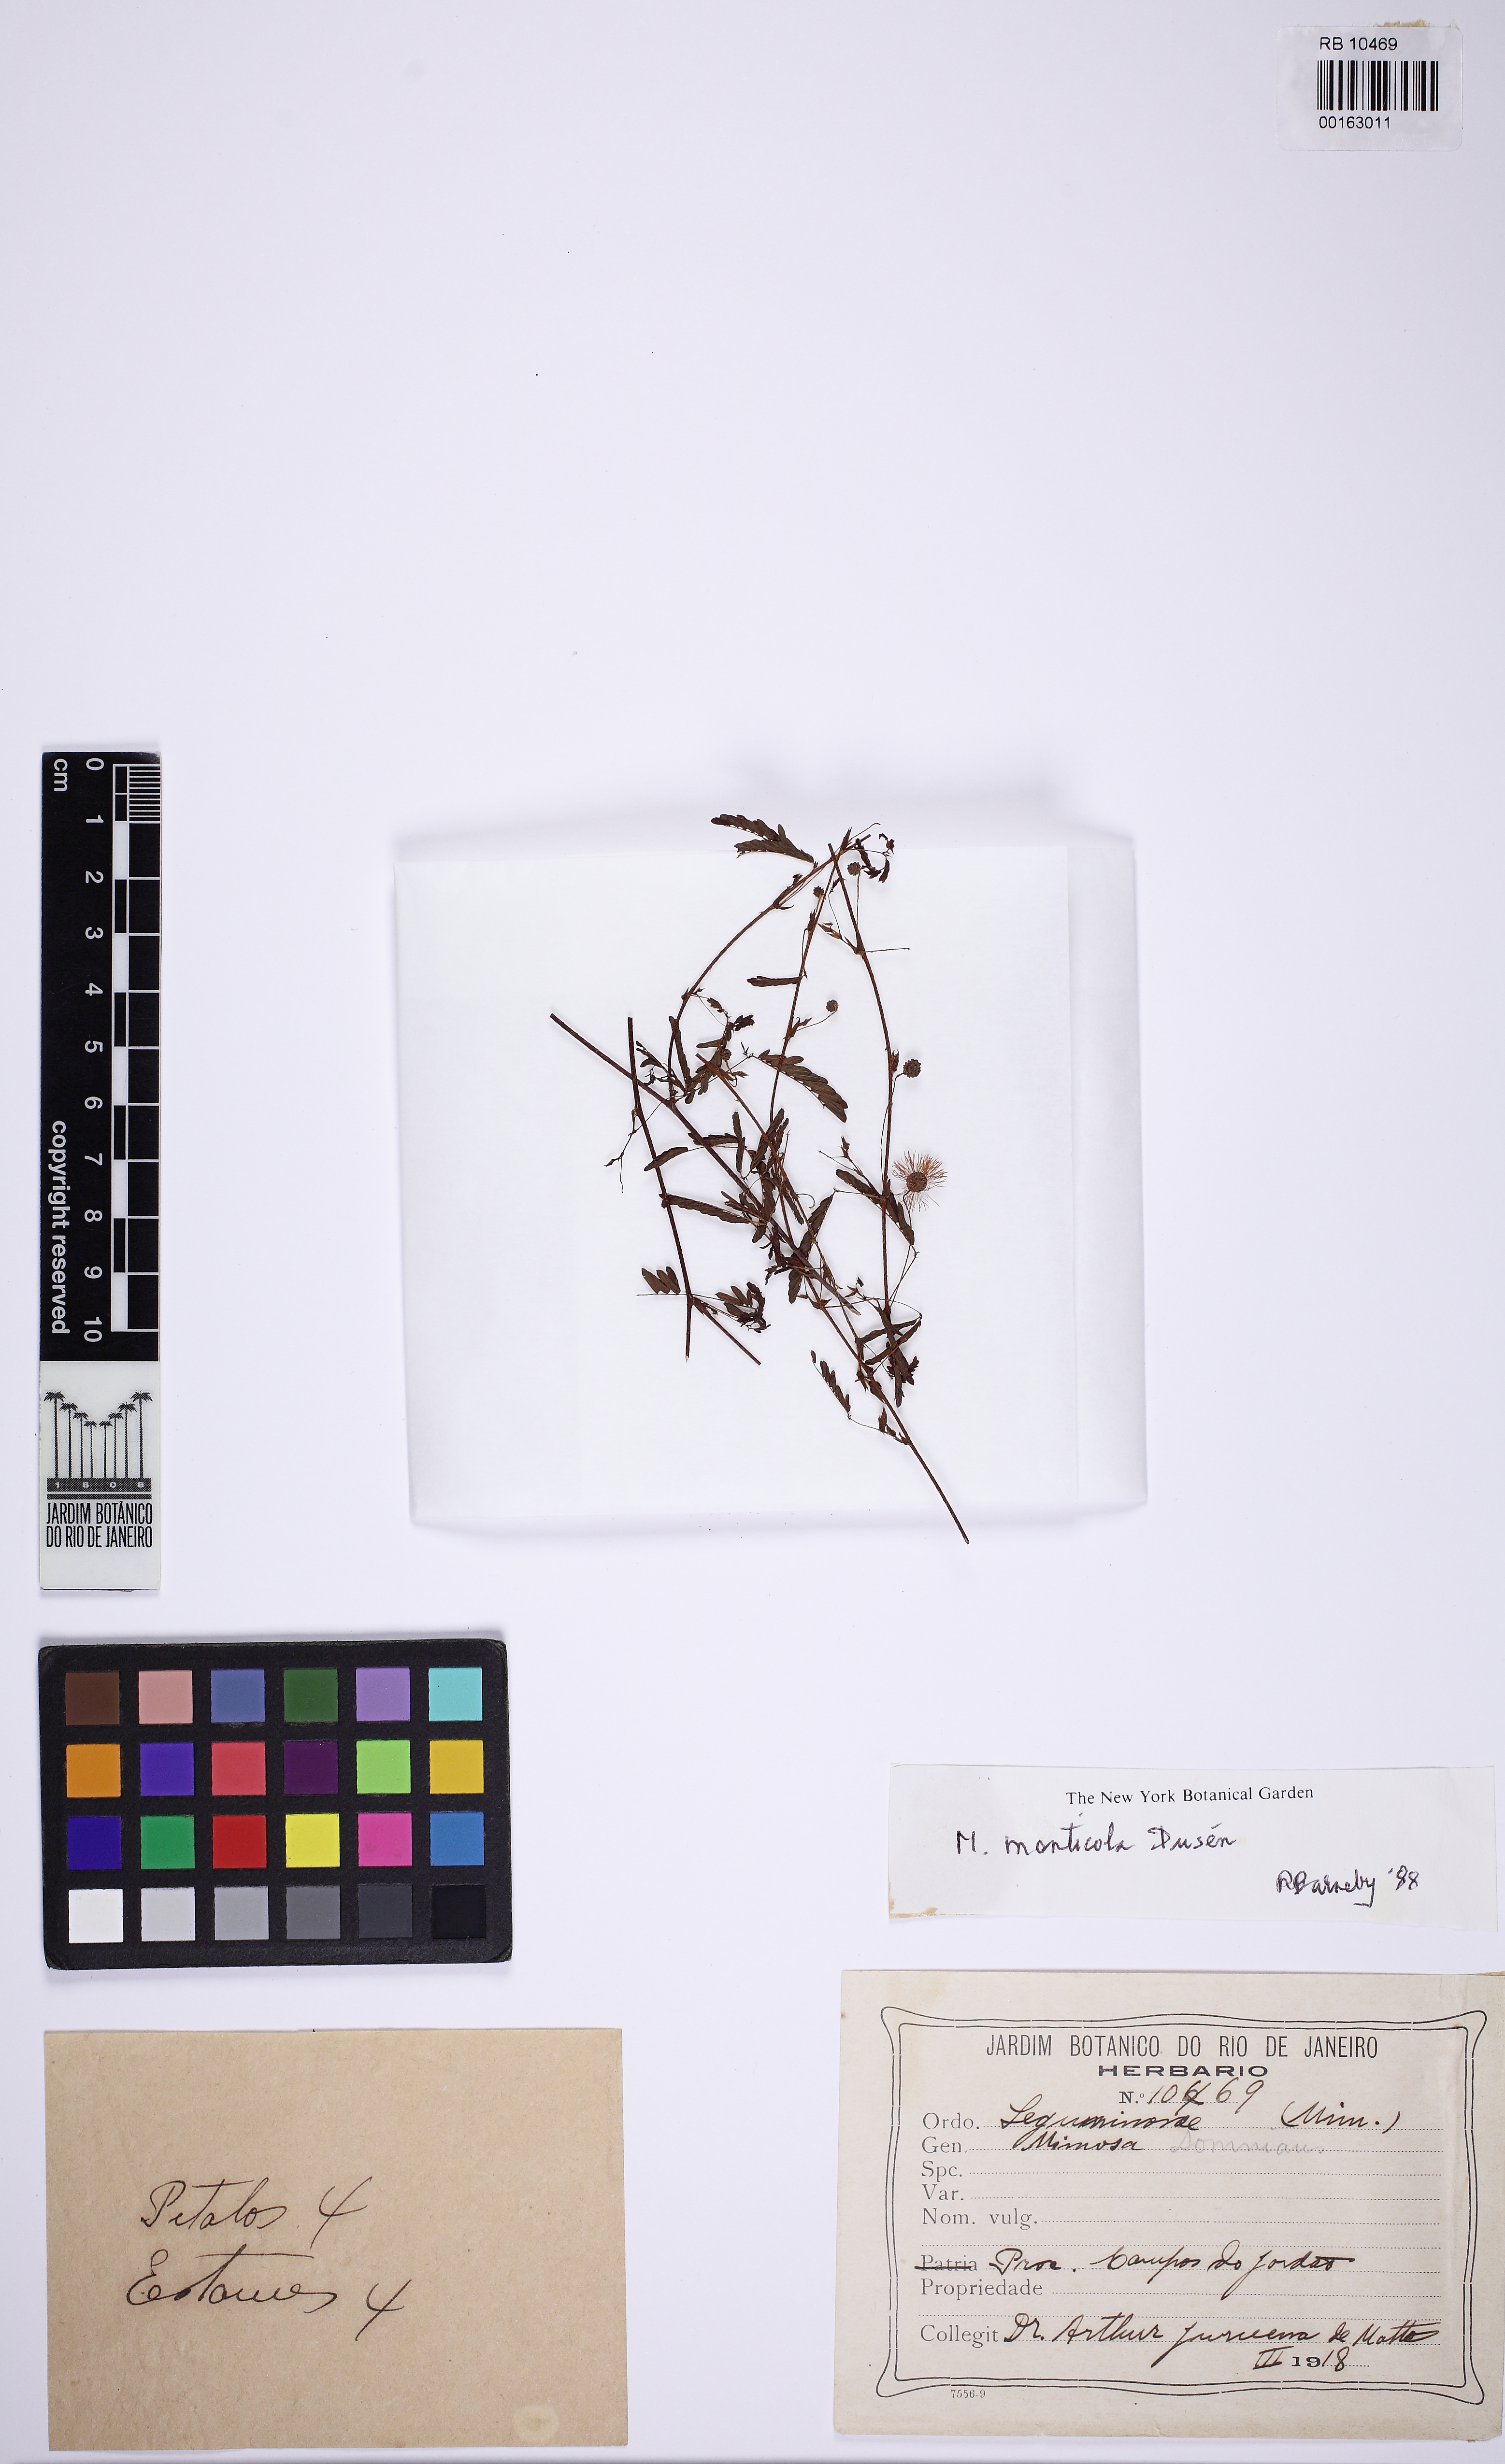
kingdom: Plantae
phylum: Tracheophyta
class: Magnoliopsida
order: Fabales
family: Fabaceae
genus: Mimosa
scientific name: Mimosa monticola
